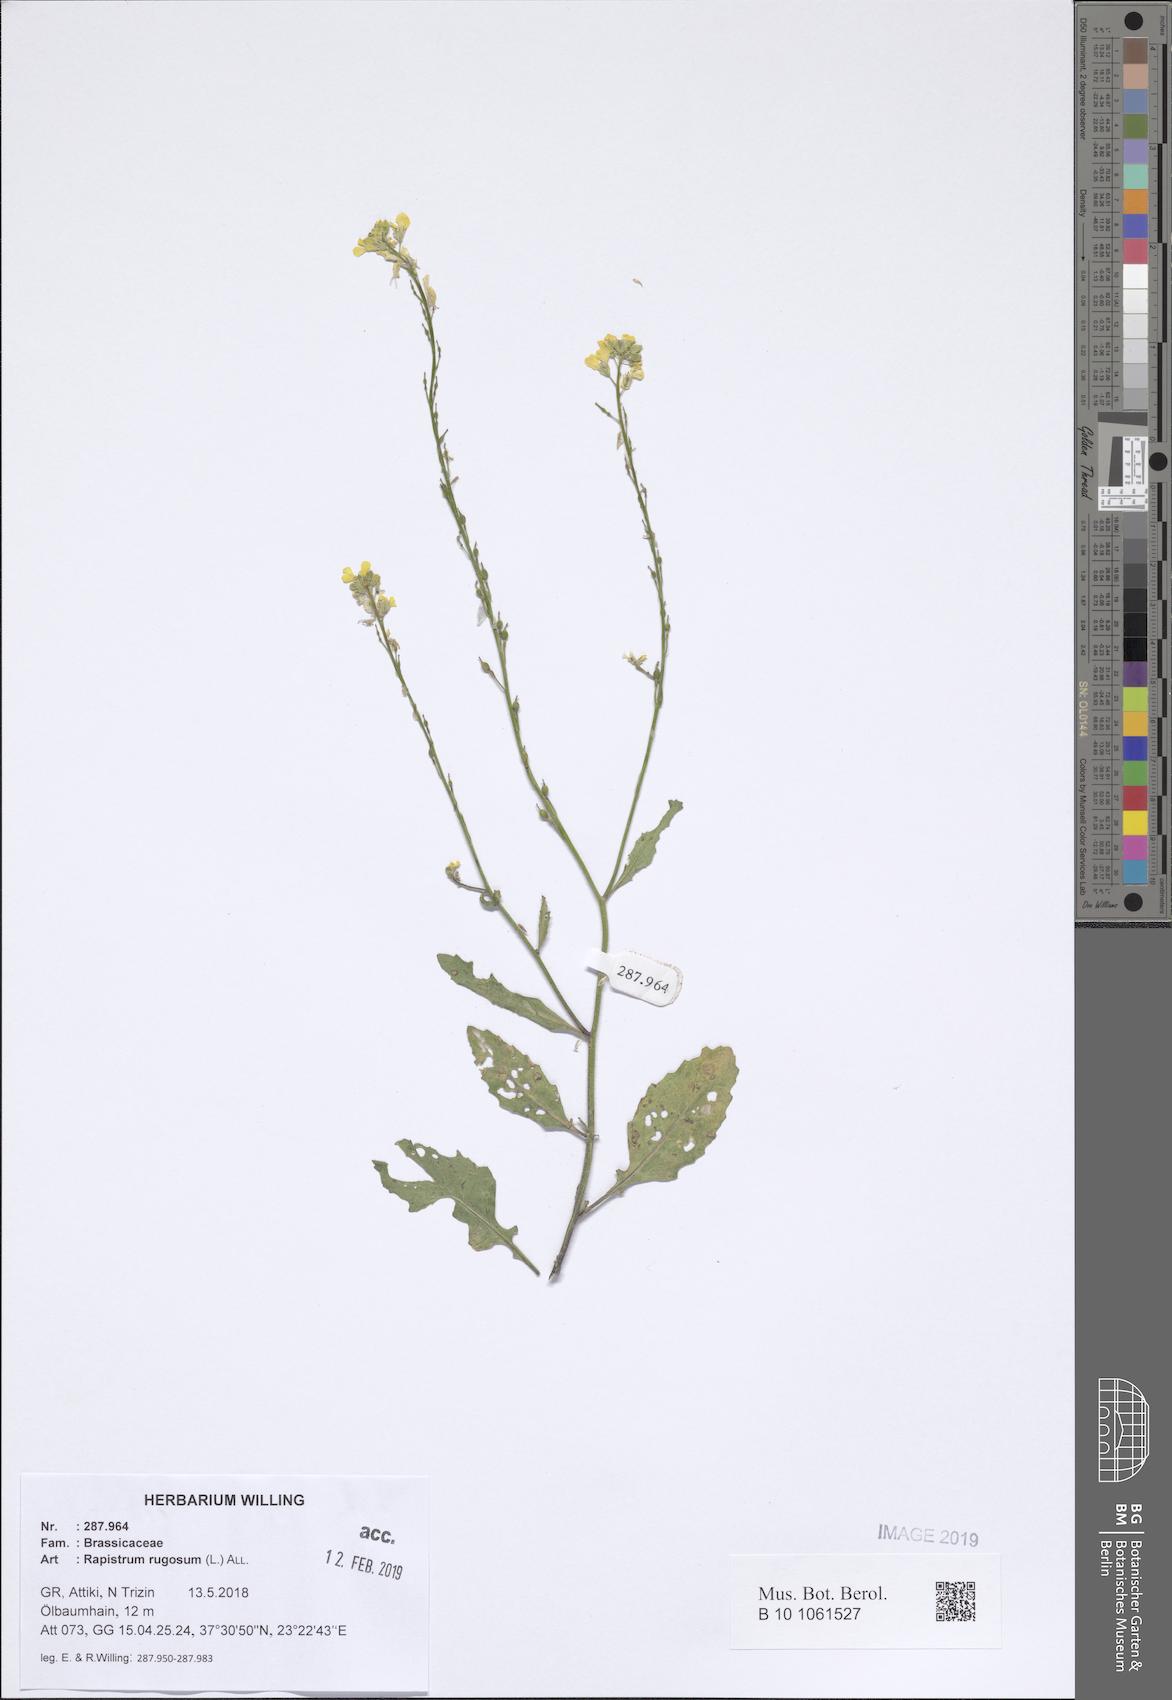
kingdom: Plantae
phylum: Tracheophyta
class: Magnoliopsida
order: Brassicales
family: Brassicaceae
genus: Rapistrum
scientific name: Rapistrum rugosum
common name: Annual bastardcabbage
